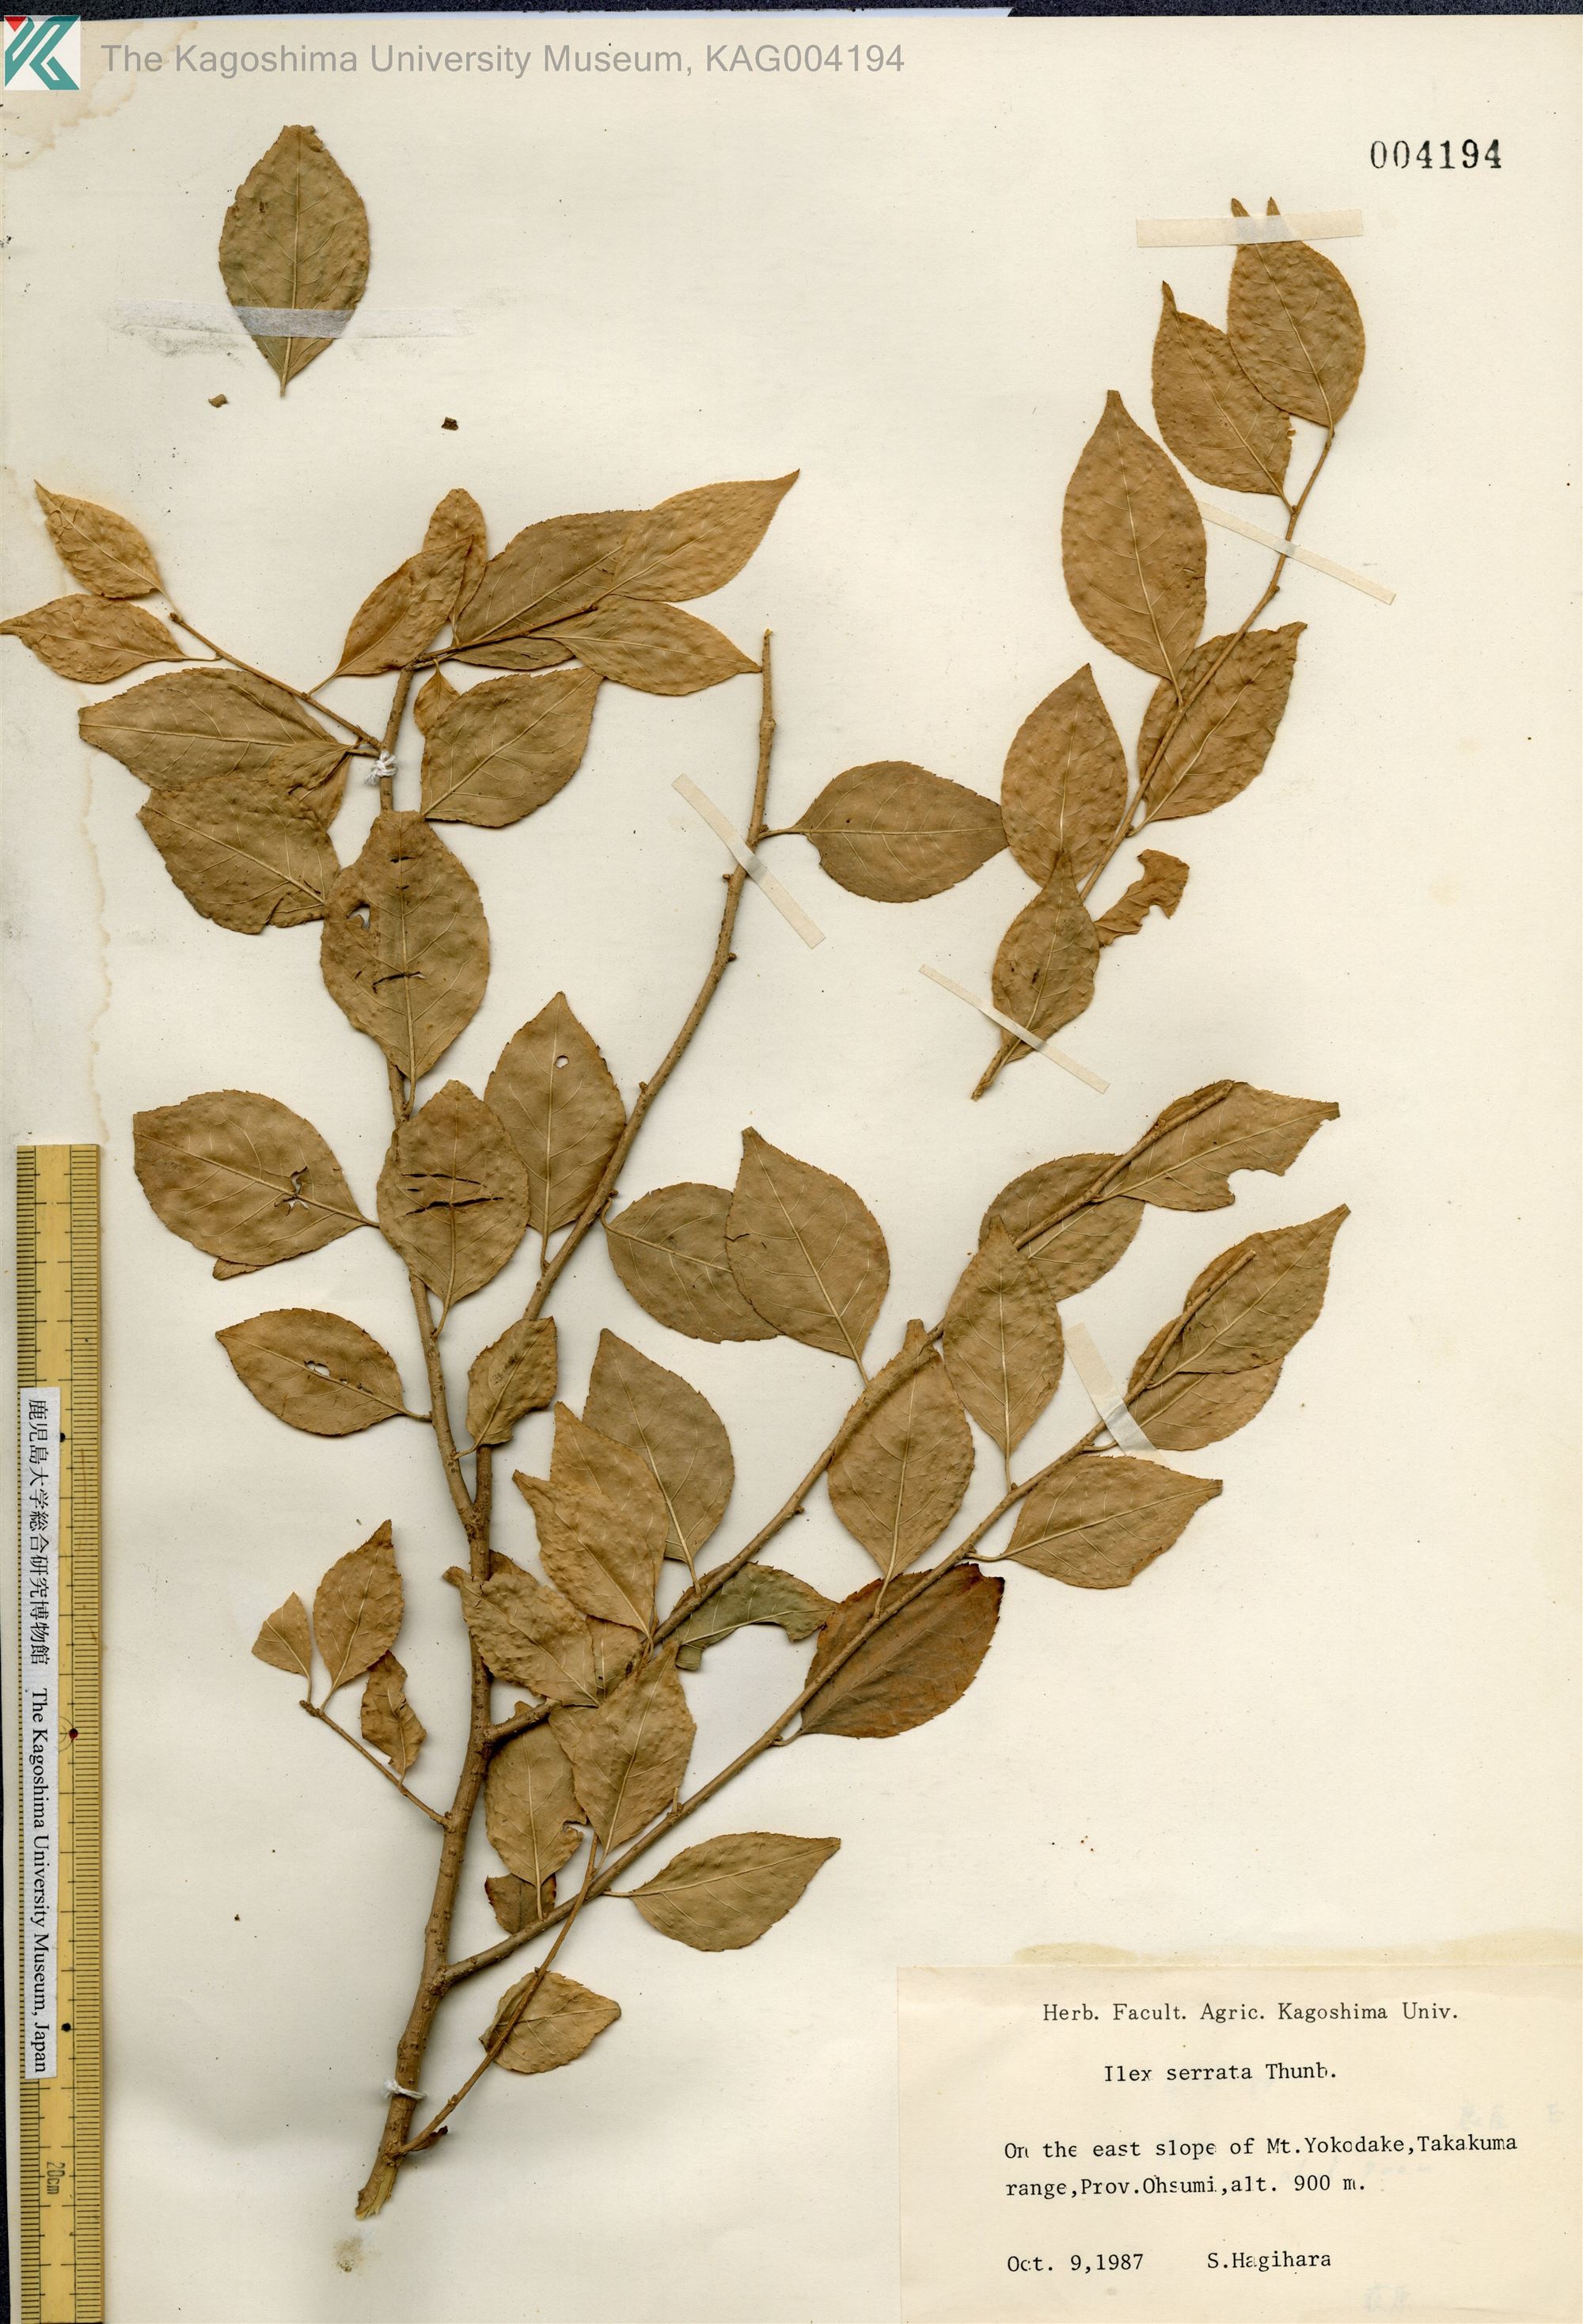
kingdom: Plantae
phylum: Tracheophyta
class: Magnoliopsida
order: Aquifoliales
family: Aquifoliaceae
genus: Ilex
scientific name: Ilex serrata
